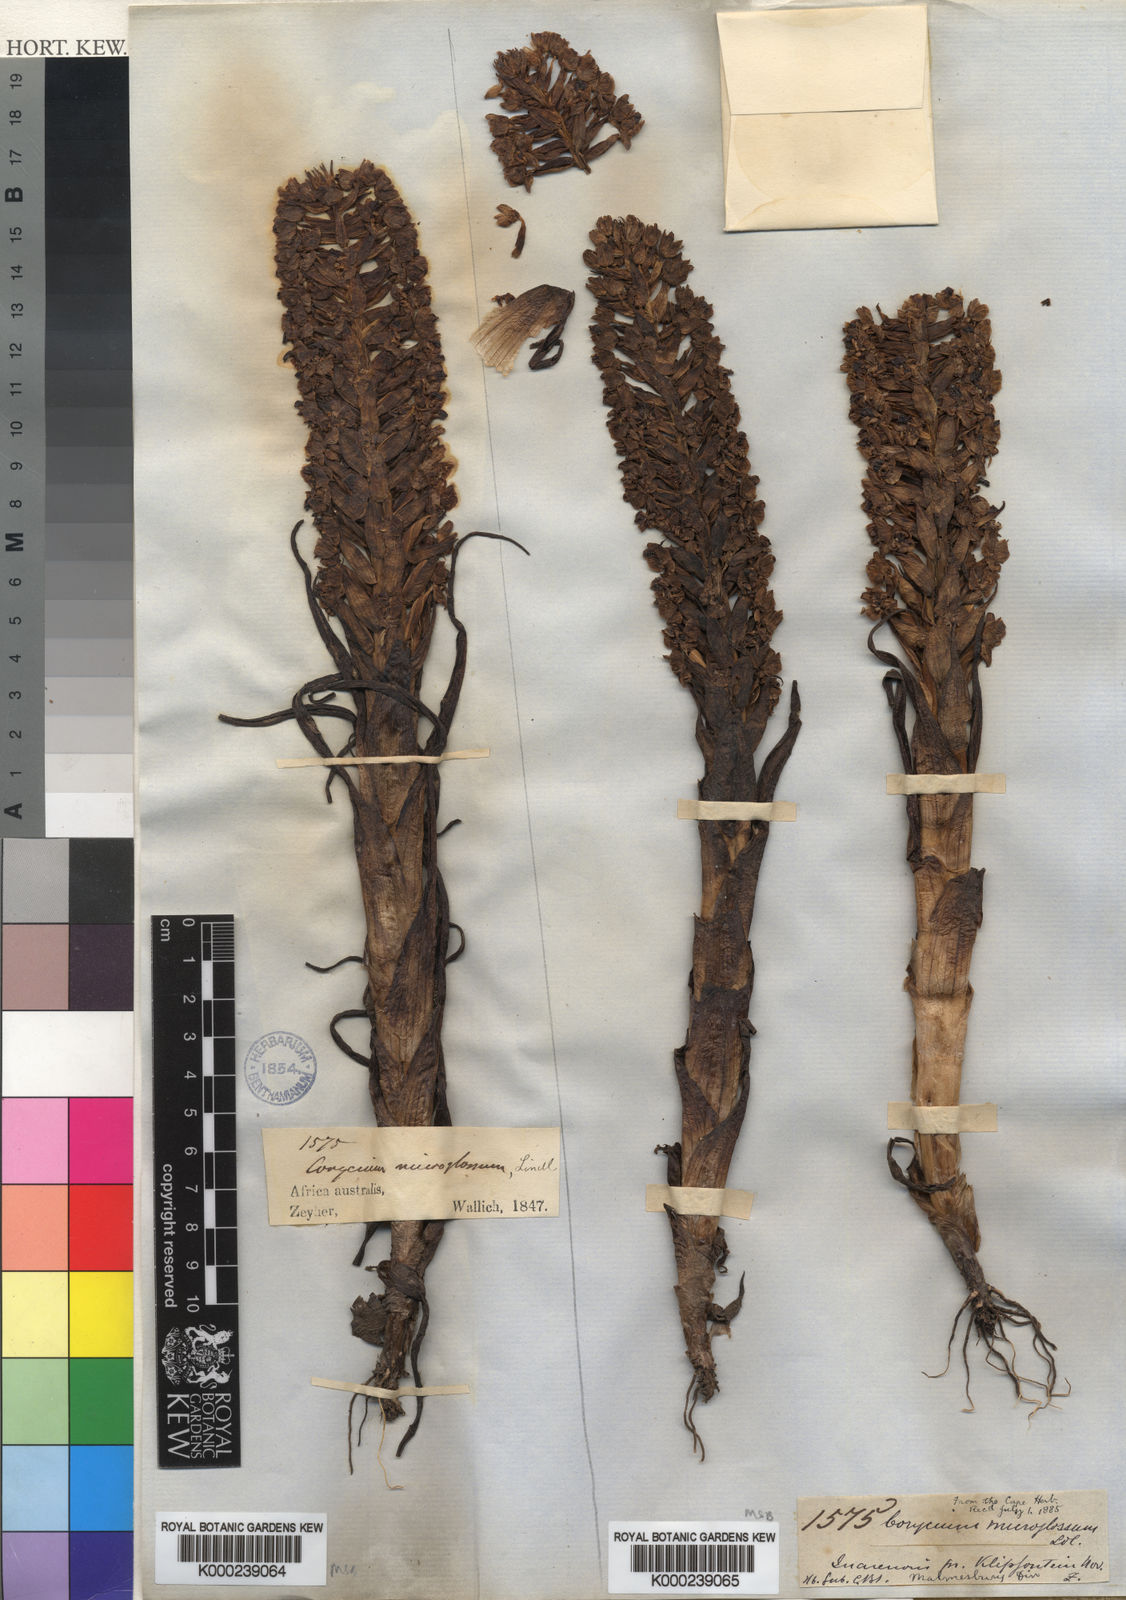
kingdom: Plantae
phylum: Tracheophyta
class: Liliopsida
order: Asparagales
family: Orchidaceae
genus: Corycium
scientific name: Corycium microglossum
